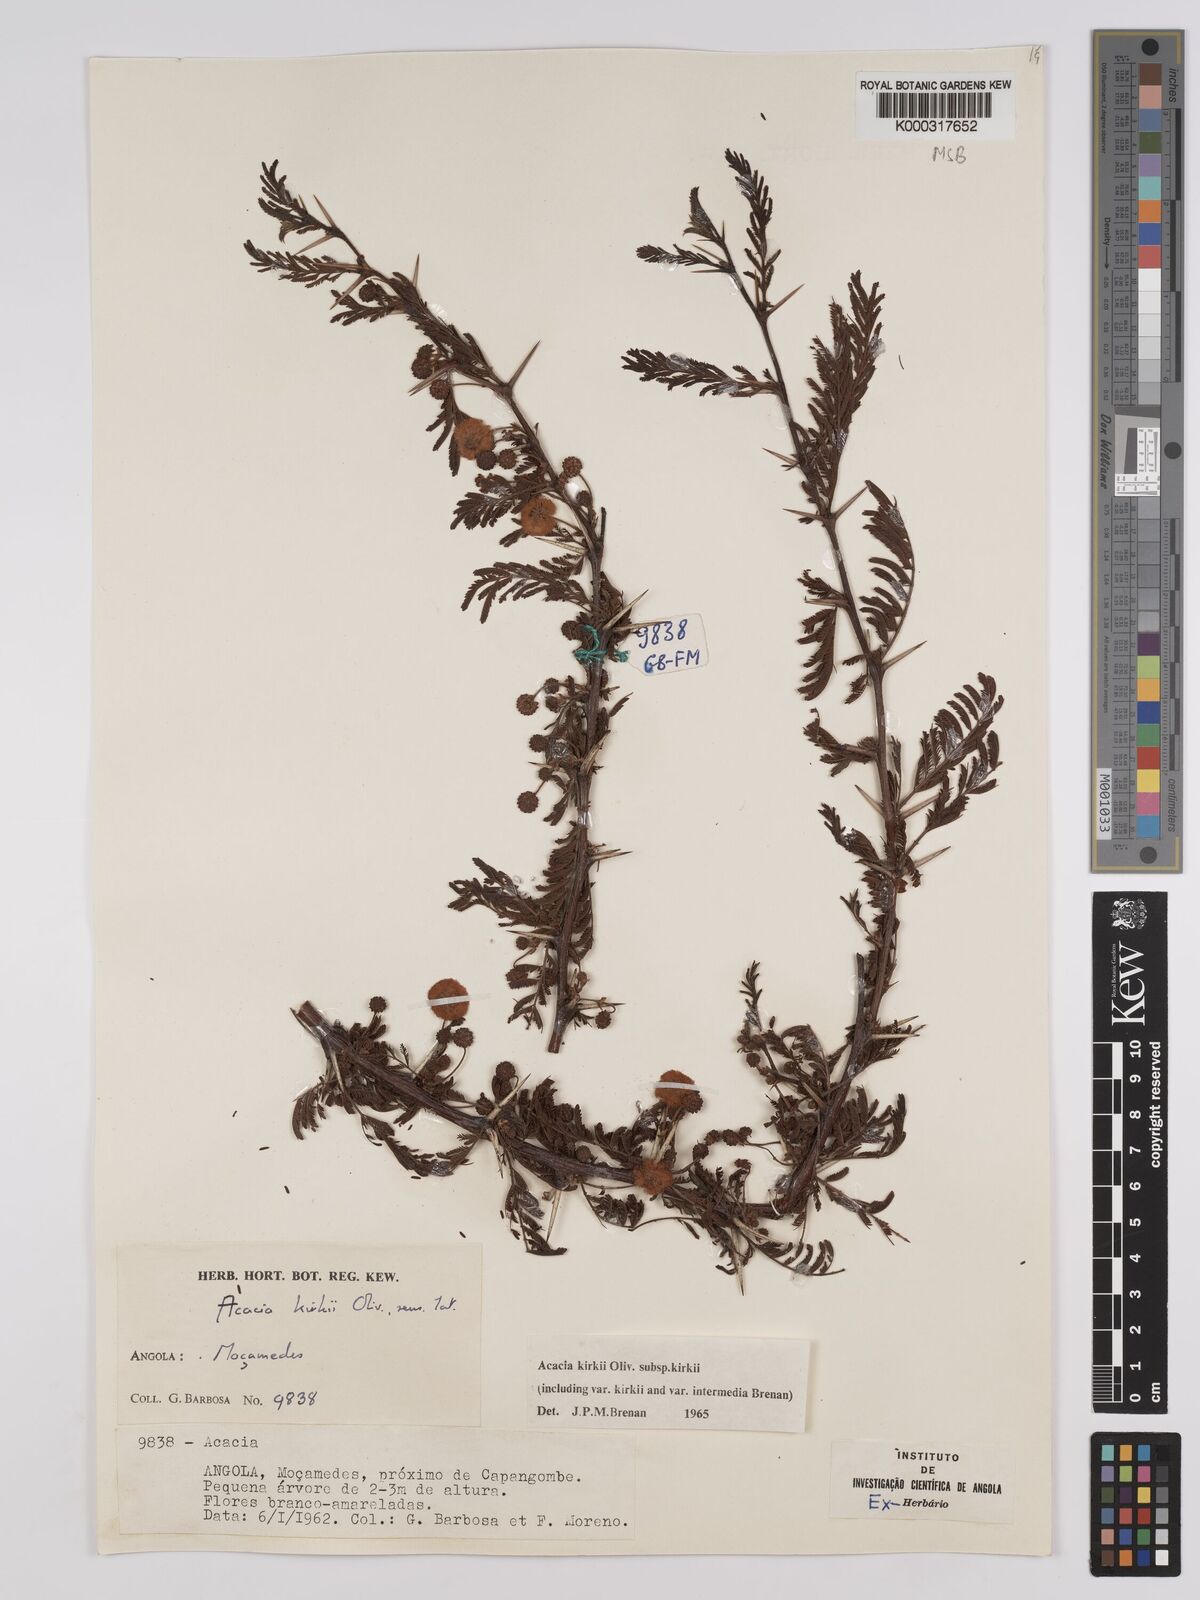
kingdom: Plantae
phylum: Tracheophyta
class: Magnoliopsida
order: Fabales
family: Fabaceae
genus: Vachellia
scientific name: Vachellia kirkii
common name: Flood-plain acacia
